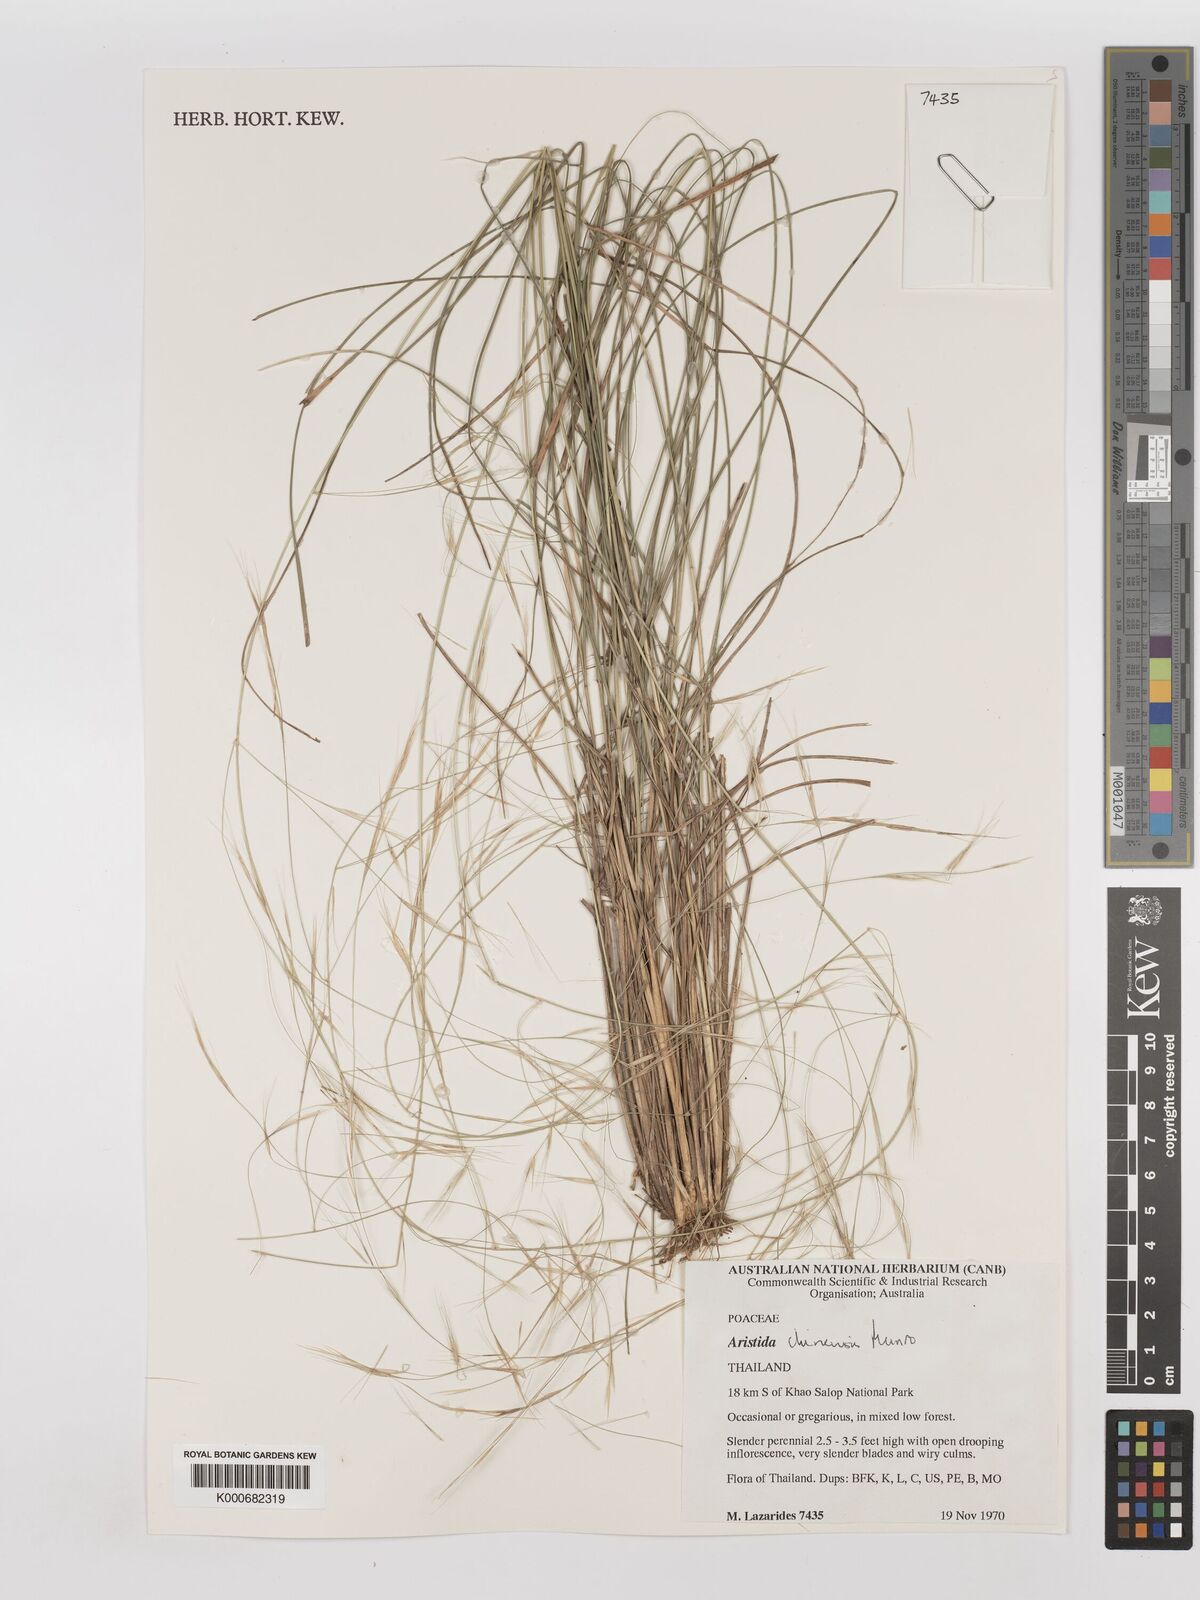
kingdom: Plantae
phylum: Tracheophyta
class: Liliopsida
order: Poales
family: Poaceae
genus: Aristida
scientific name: Aristida culionensis
